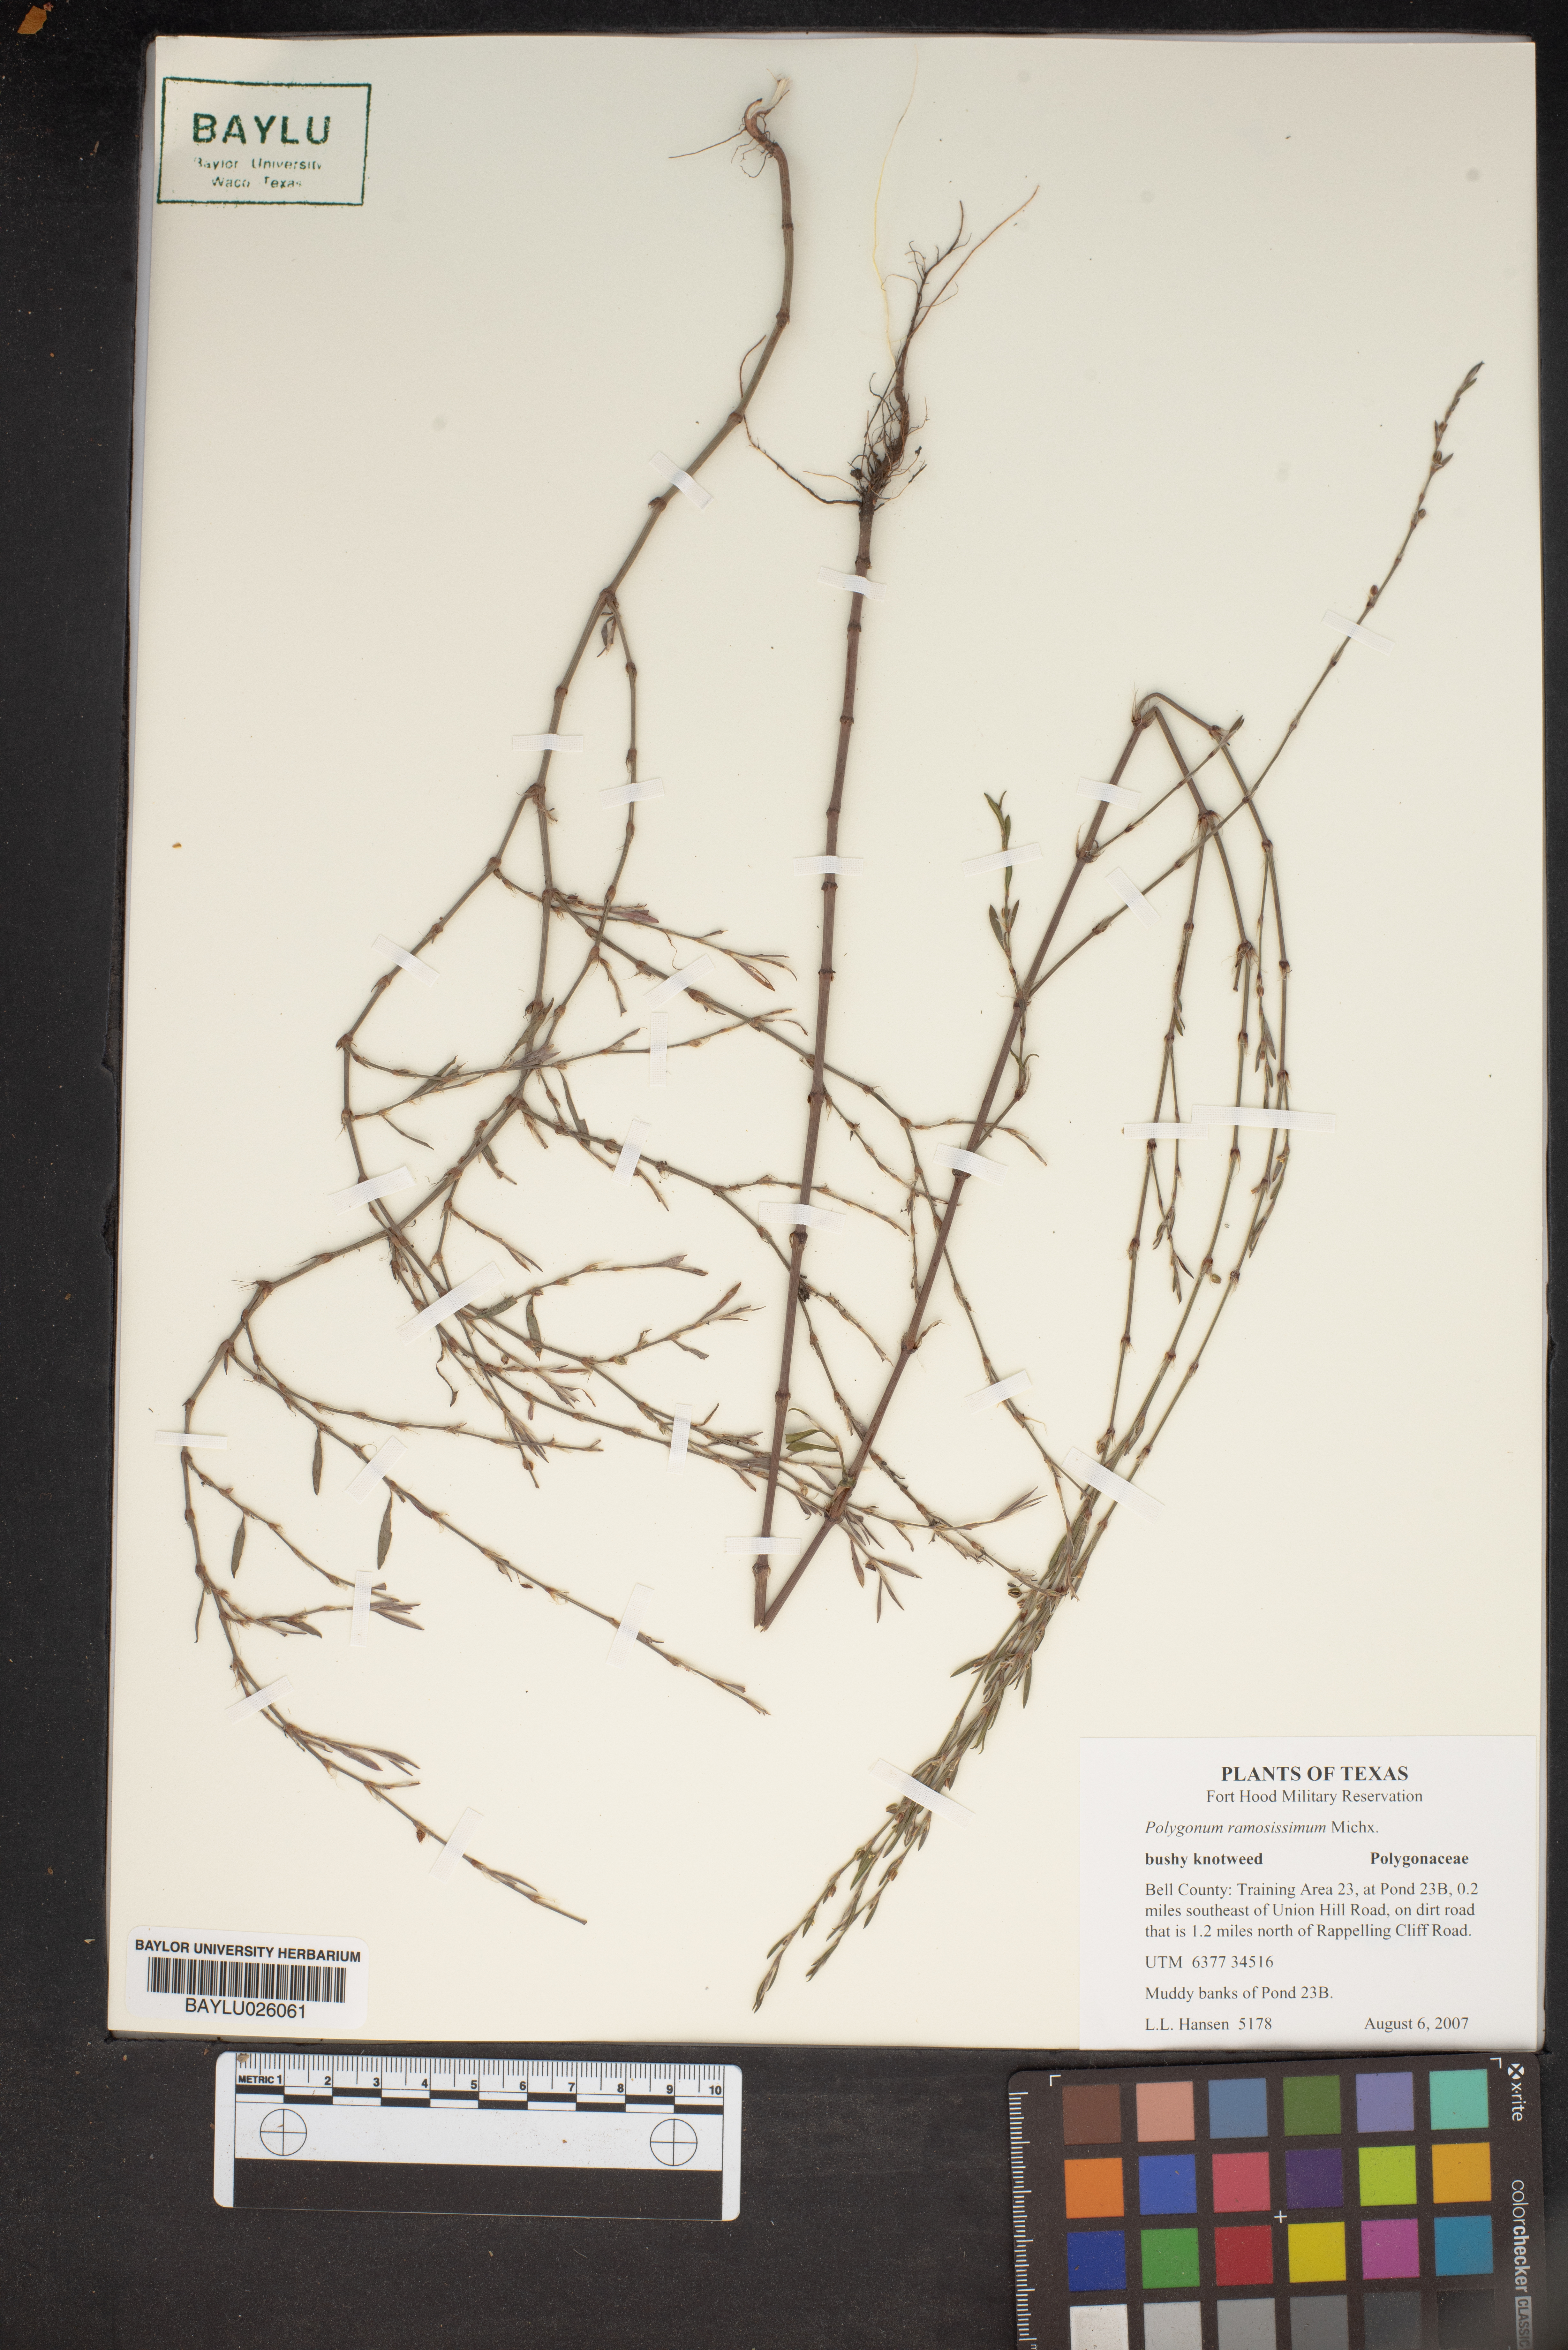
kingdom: Plantae
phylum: Tracheophyta
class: Magnoliopsida
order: Caryophyllales
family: Polygonaceae
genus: Polygonum
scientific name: Polygonum ramosissimum
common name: Bushy knotweed
